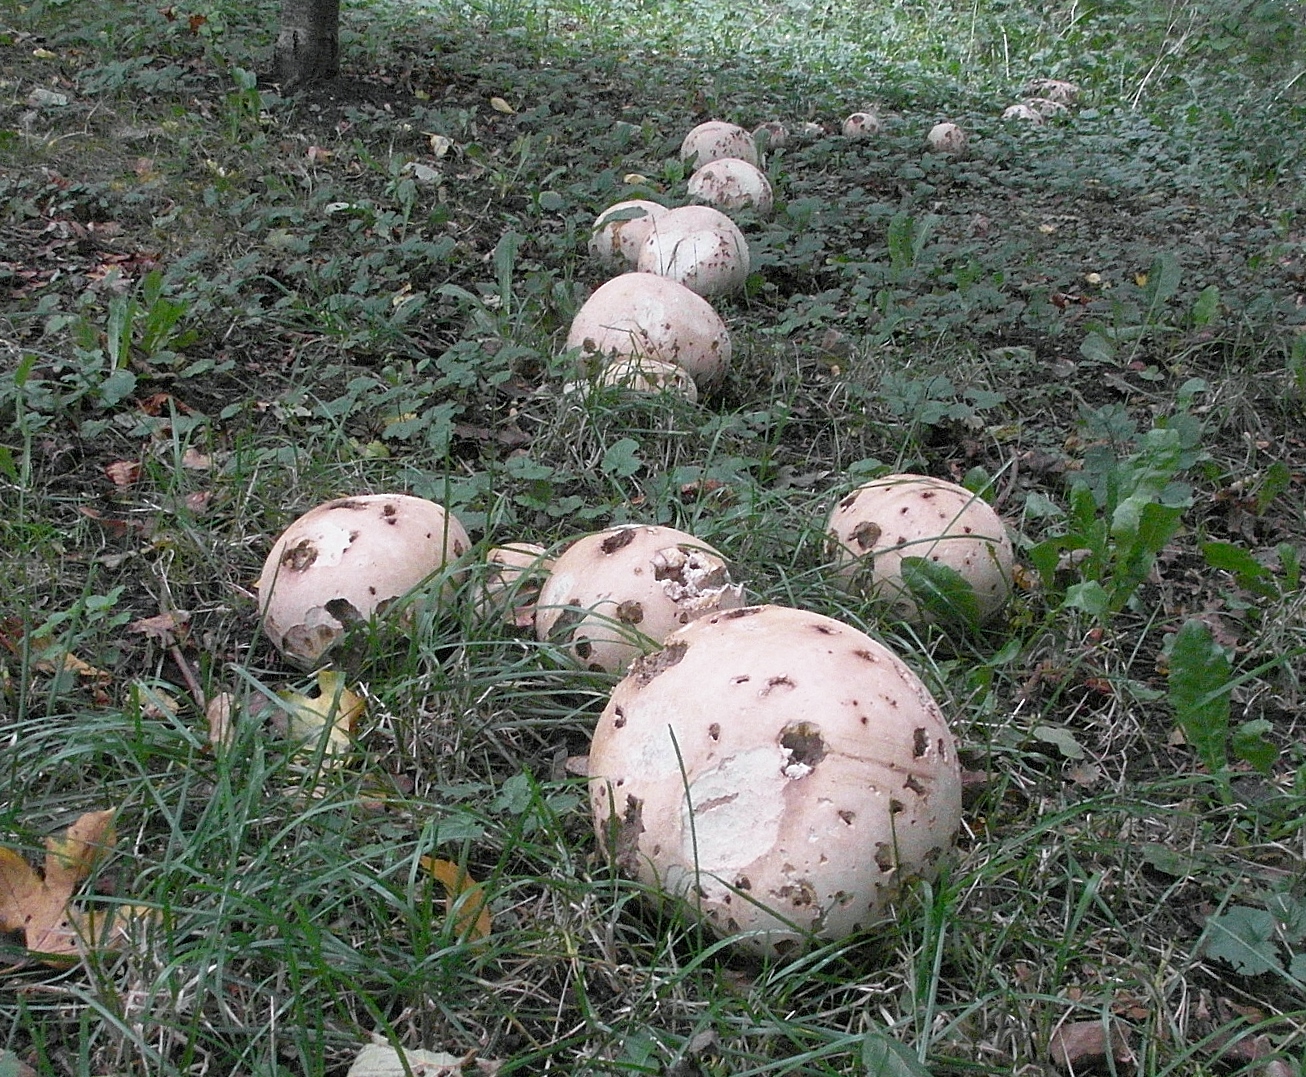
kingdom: Fungi
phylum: Basidiomycota
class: Agaricomycetes
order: Agaricales
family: Lycoperdaceae
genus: Calvatia
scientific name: Calvatia gigantea
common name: kæmpestøvbold
